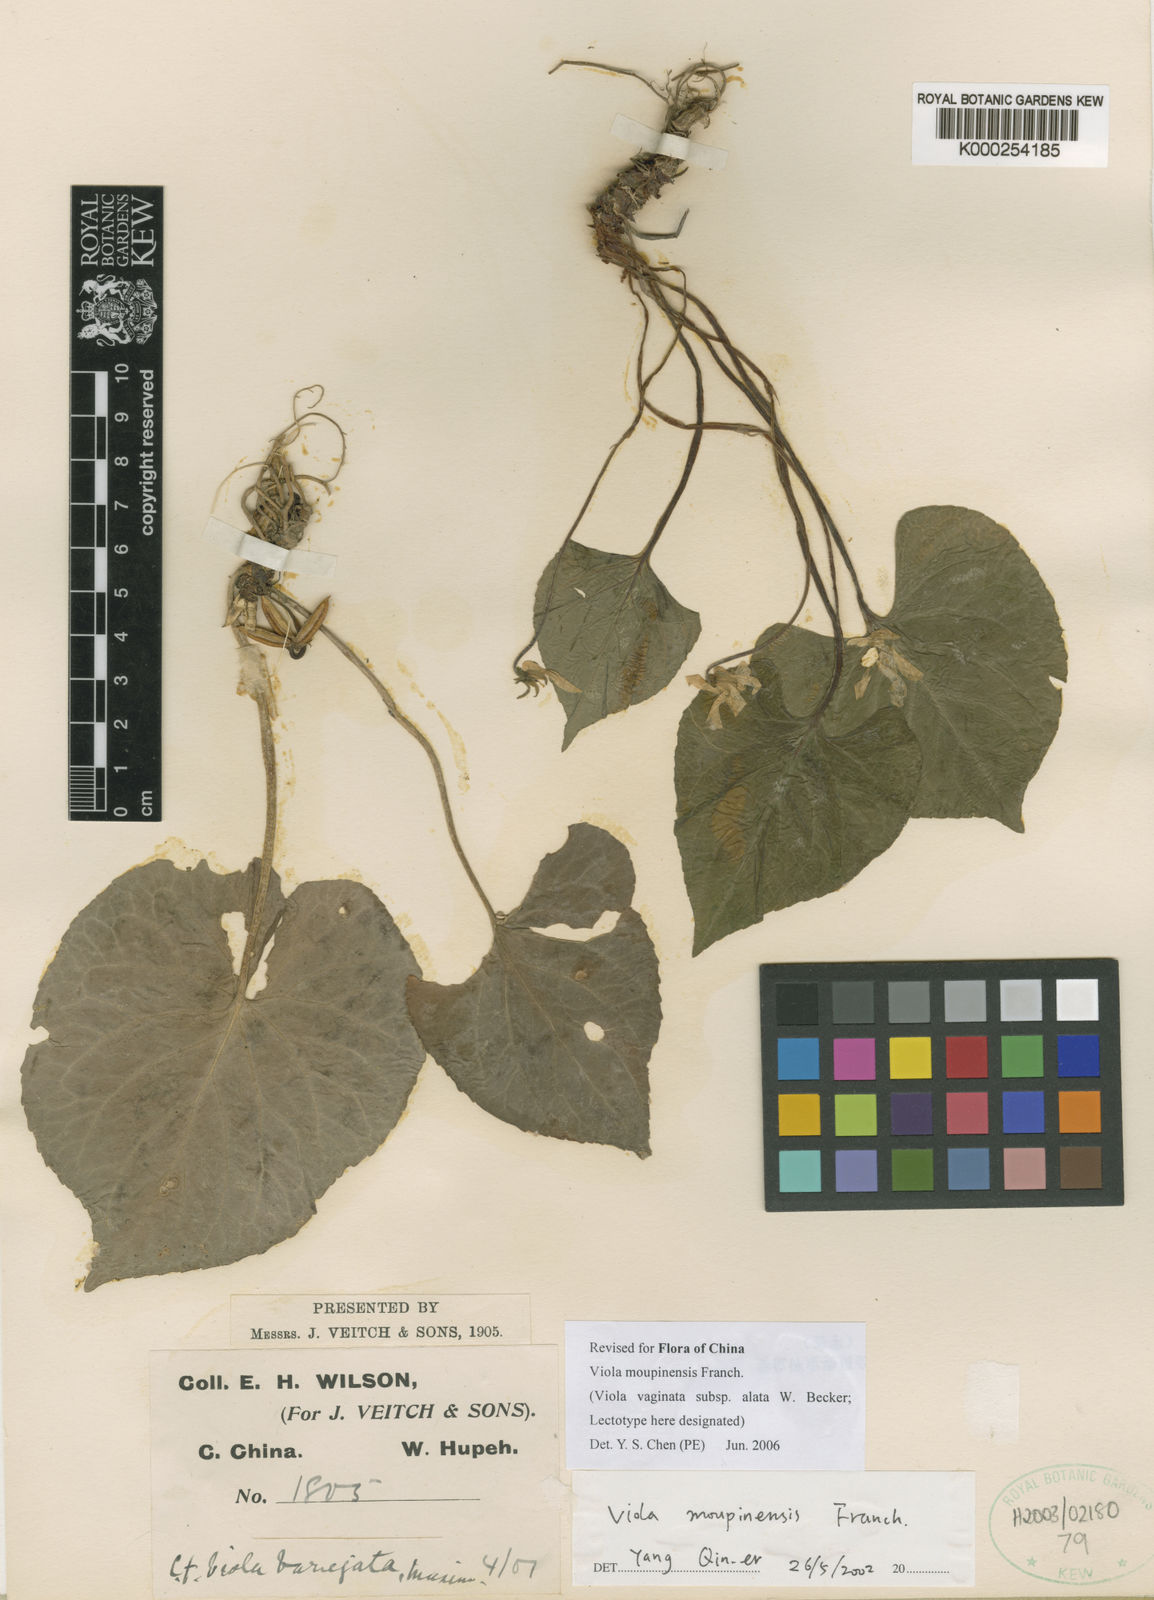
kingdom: Plantae
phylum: Tracheophyta
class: Magnoliopsida
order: Malpighiales
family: Violaceae
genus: Viola
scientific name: Viola moupinensis
